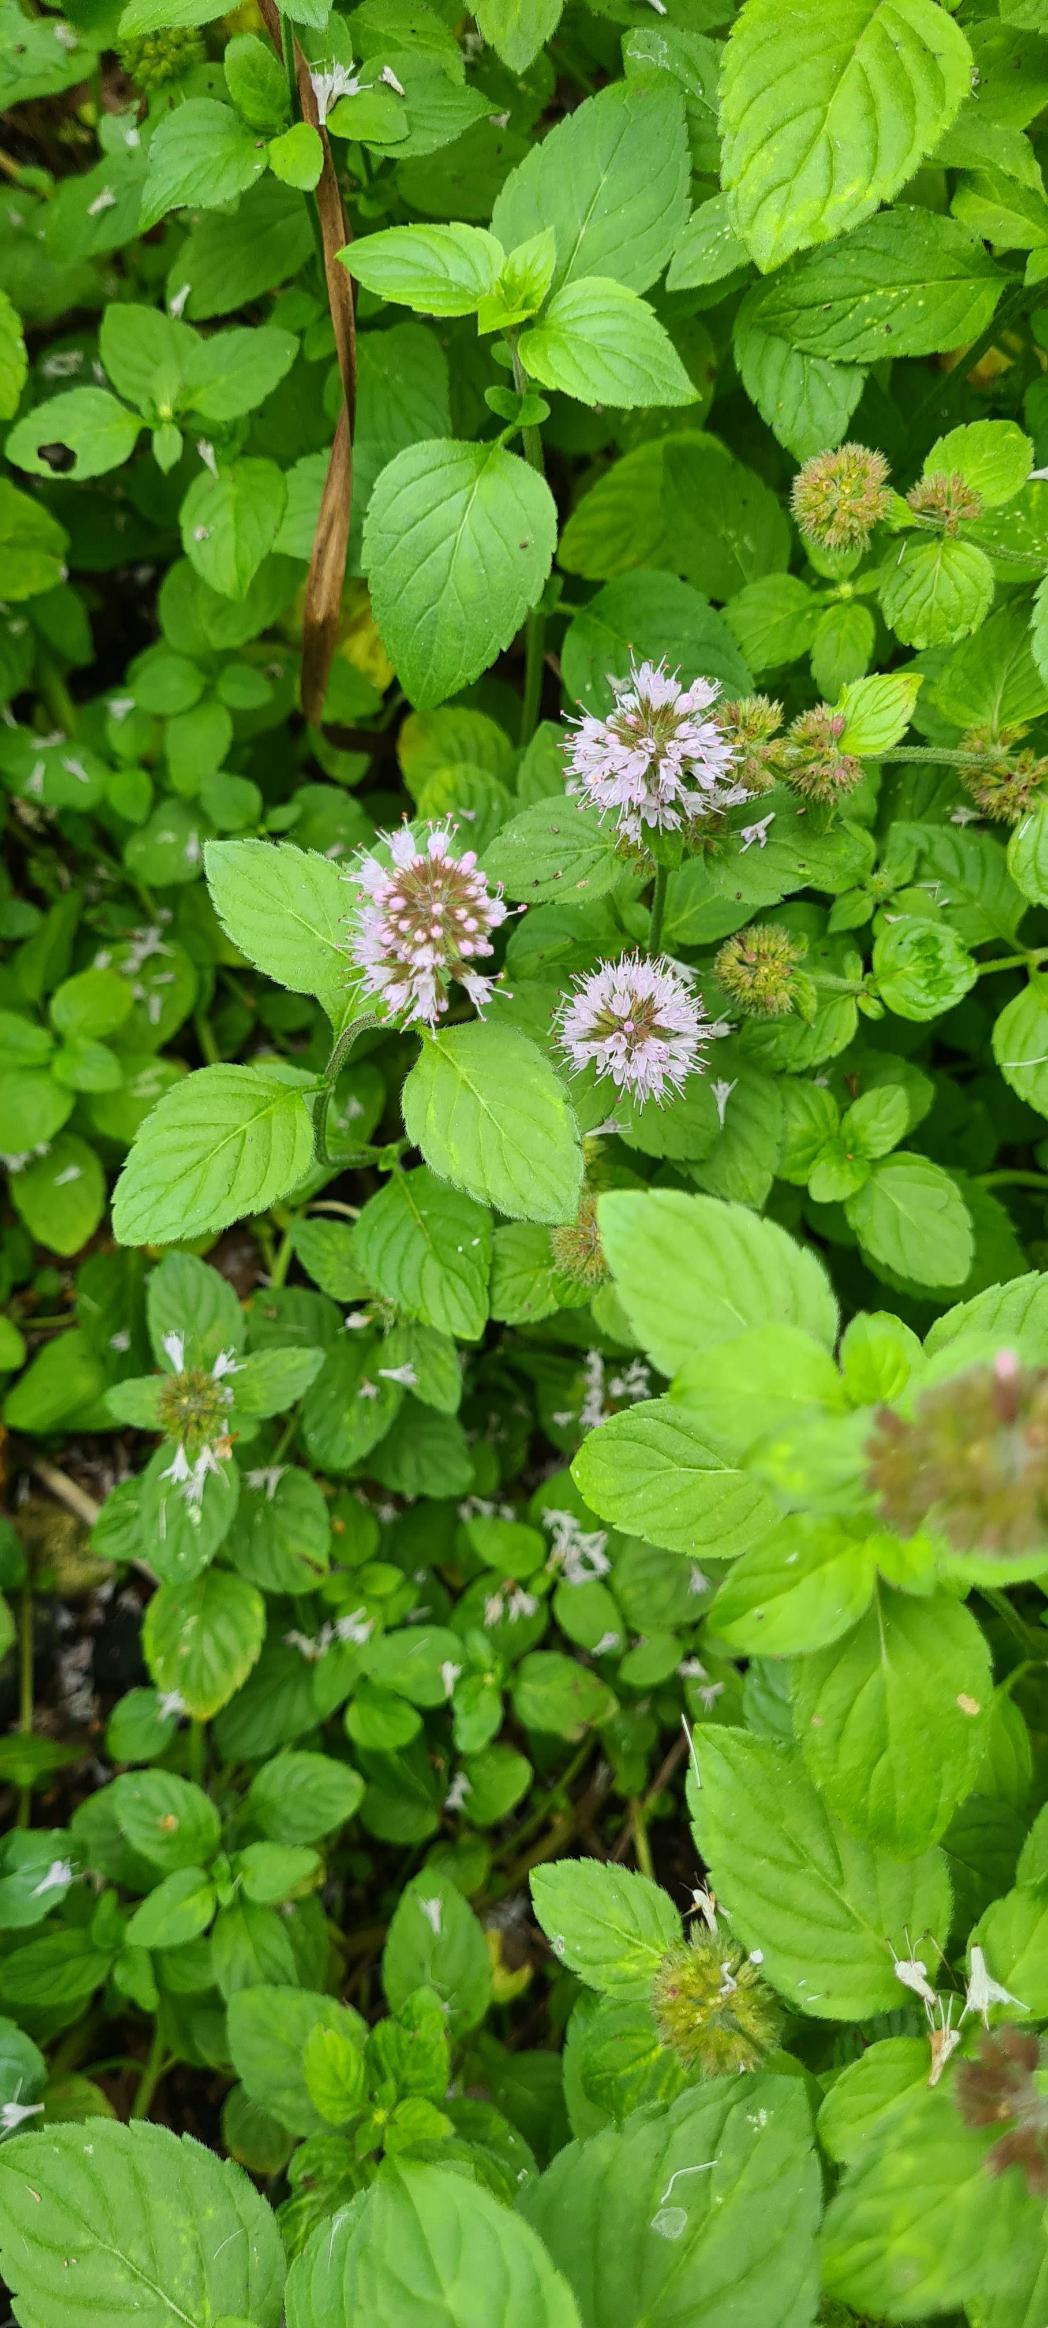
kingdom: Plantae
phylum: Tracheophyta
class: Magnoliopsida
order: Lamiales
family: Lamiaceae
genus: Mentha
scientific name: Mentha aquatica
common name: Vand-mynte
